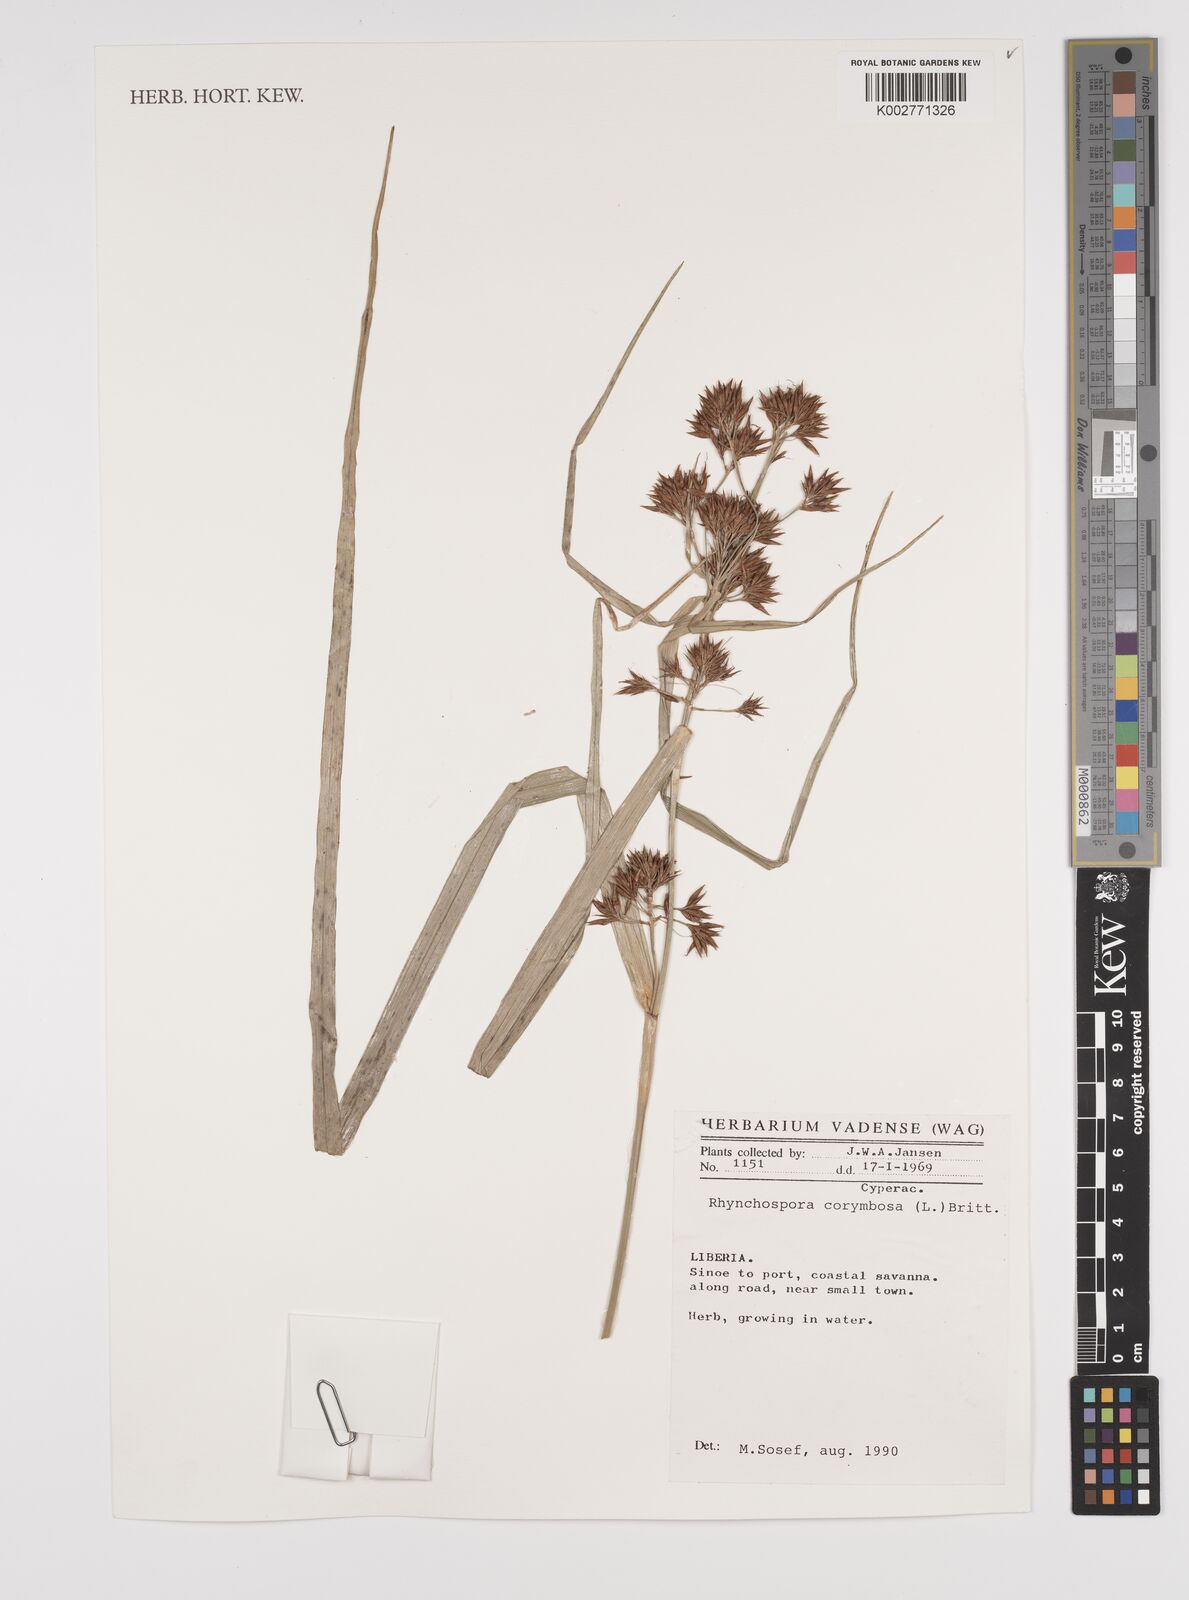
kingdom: Plantae
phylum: Tracheophyta
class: Liliopsida
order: Poales
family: Cyperaceae
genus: Rhynchospora
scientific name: Rhynchospora corymbosa
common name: Golden beak sedge
